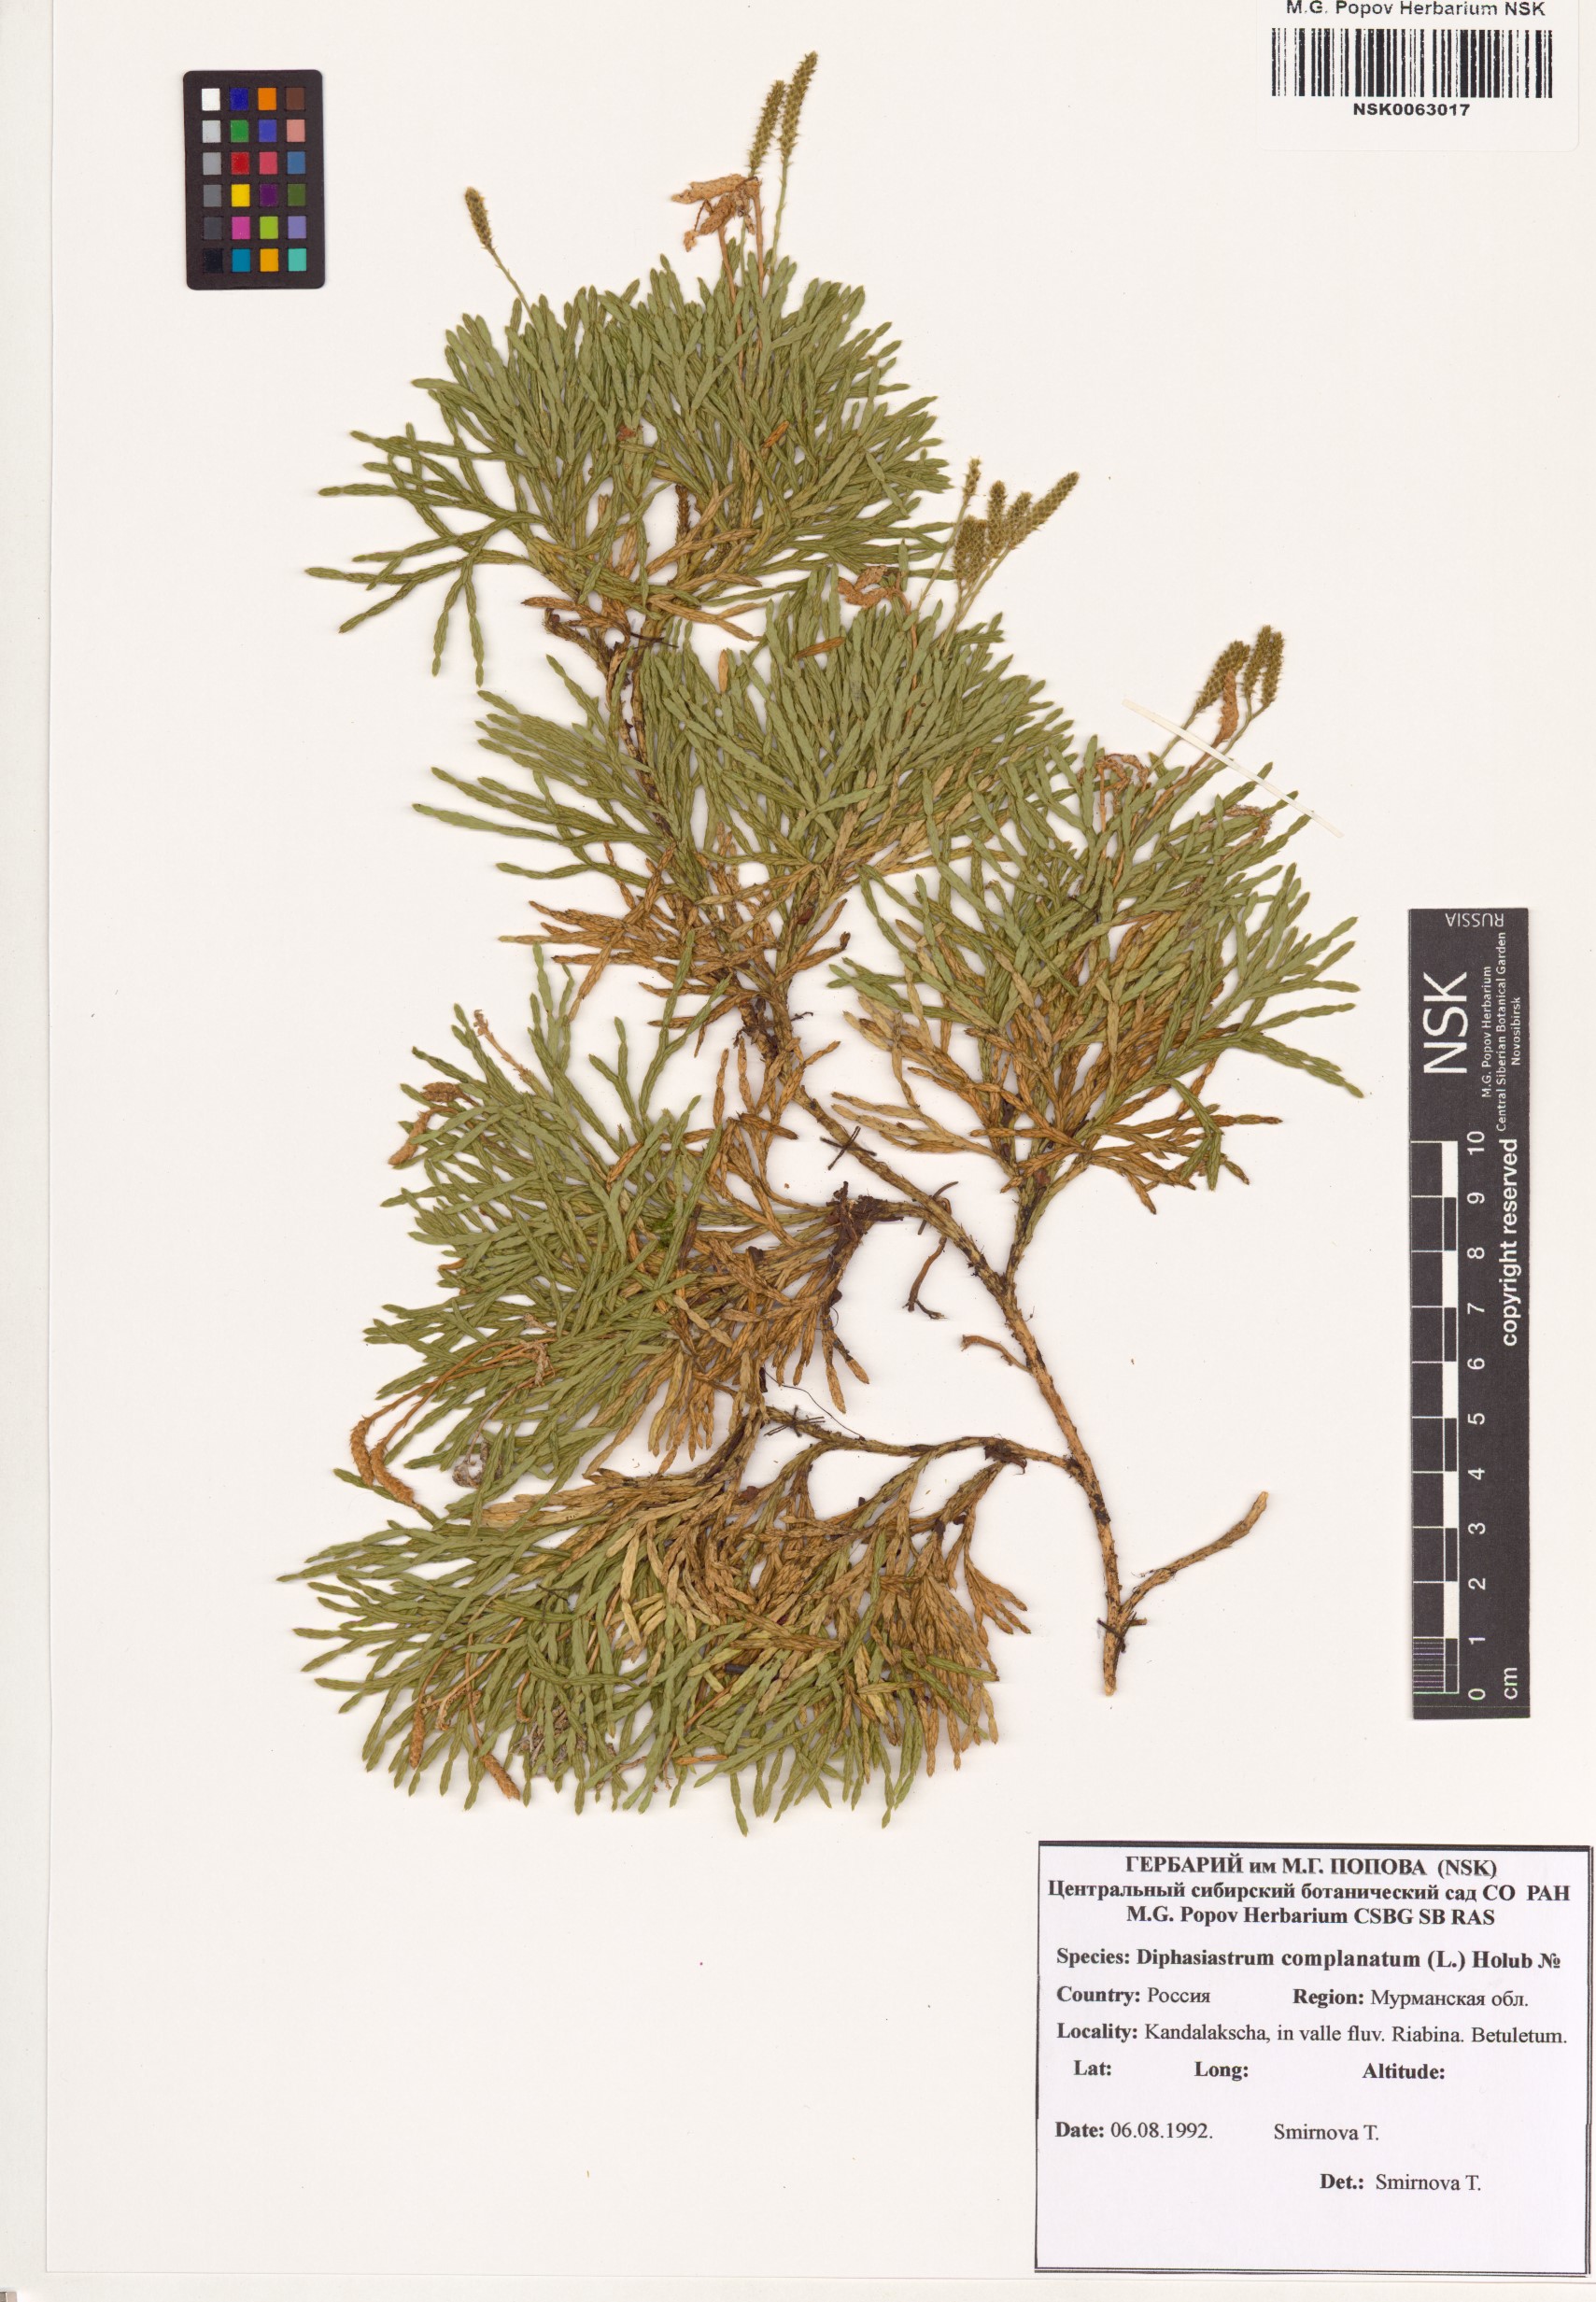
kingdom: Plantae
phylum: Tracheophyta
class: Lycopodiopsida
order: Lycopodiales
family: Lycopodiaceae
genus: Diphasiastrum
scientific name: Diphasiastrum complanatum
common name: Northern running-pine
